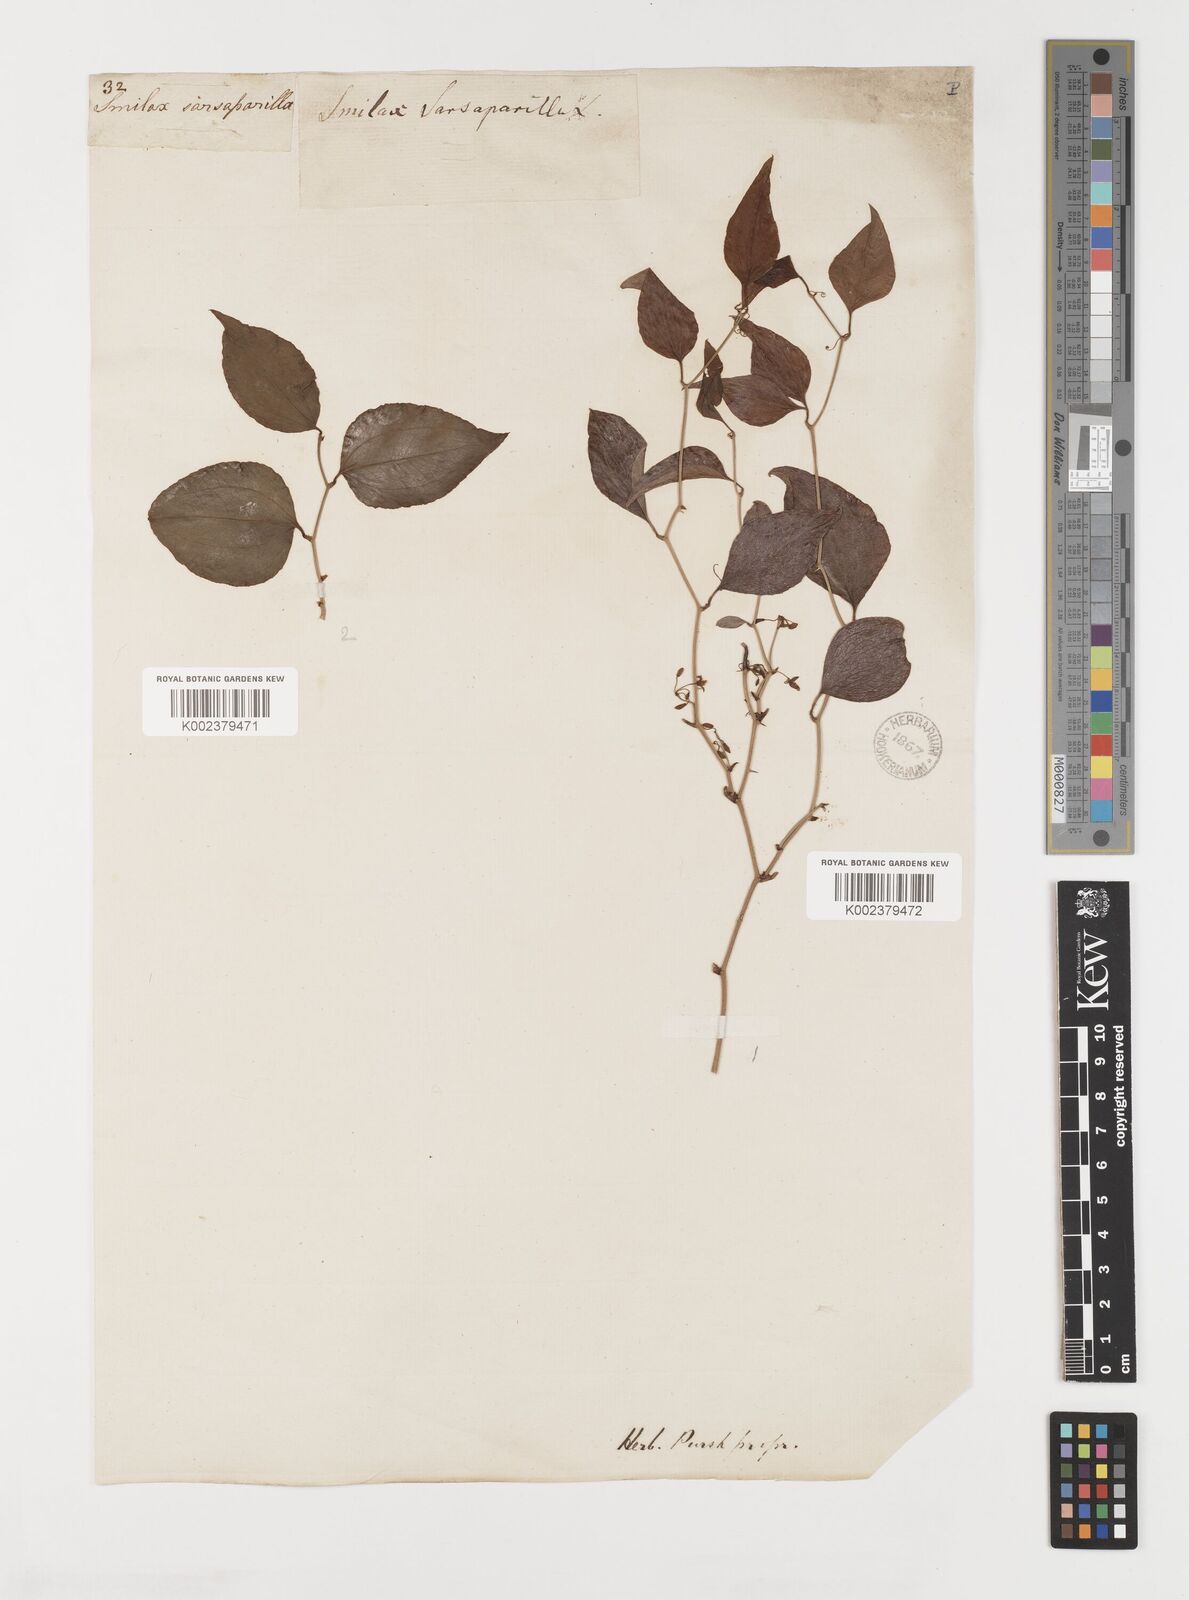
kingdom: Plantae
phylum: Tracheophyta
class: Liliopsida
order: Liliales
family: Smilacaceae
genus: Smilax
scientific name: Smilax
